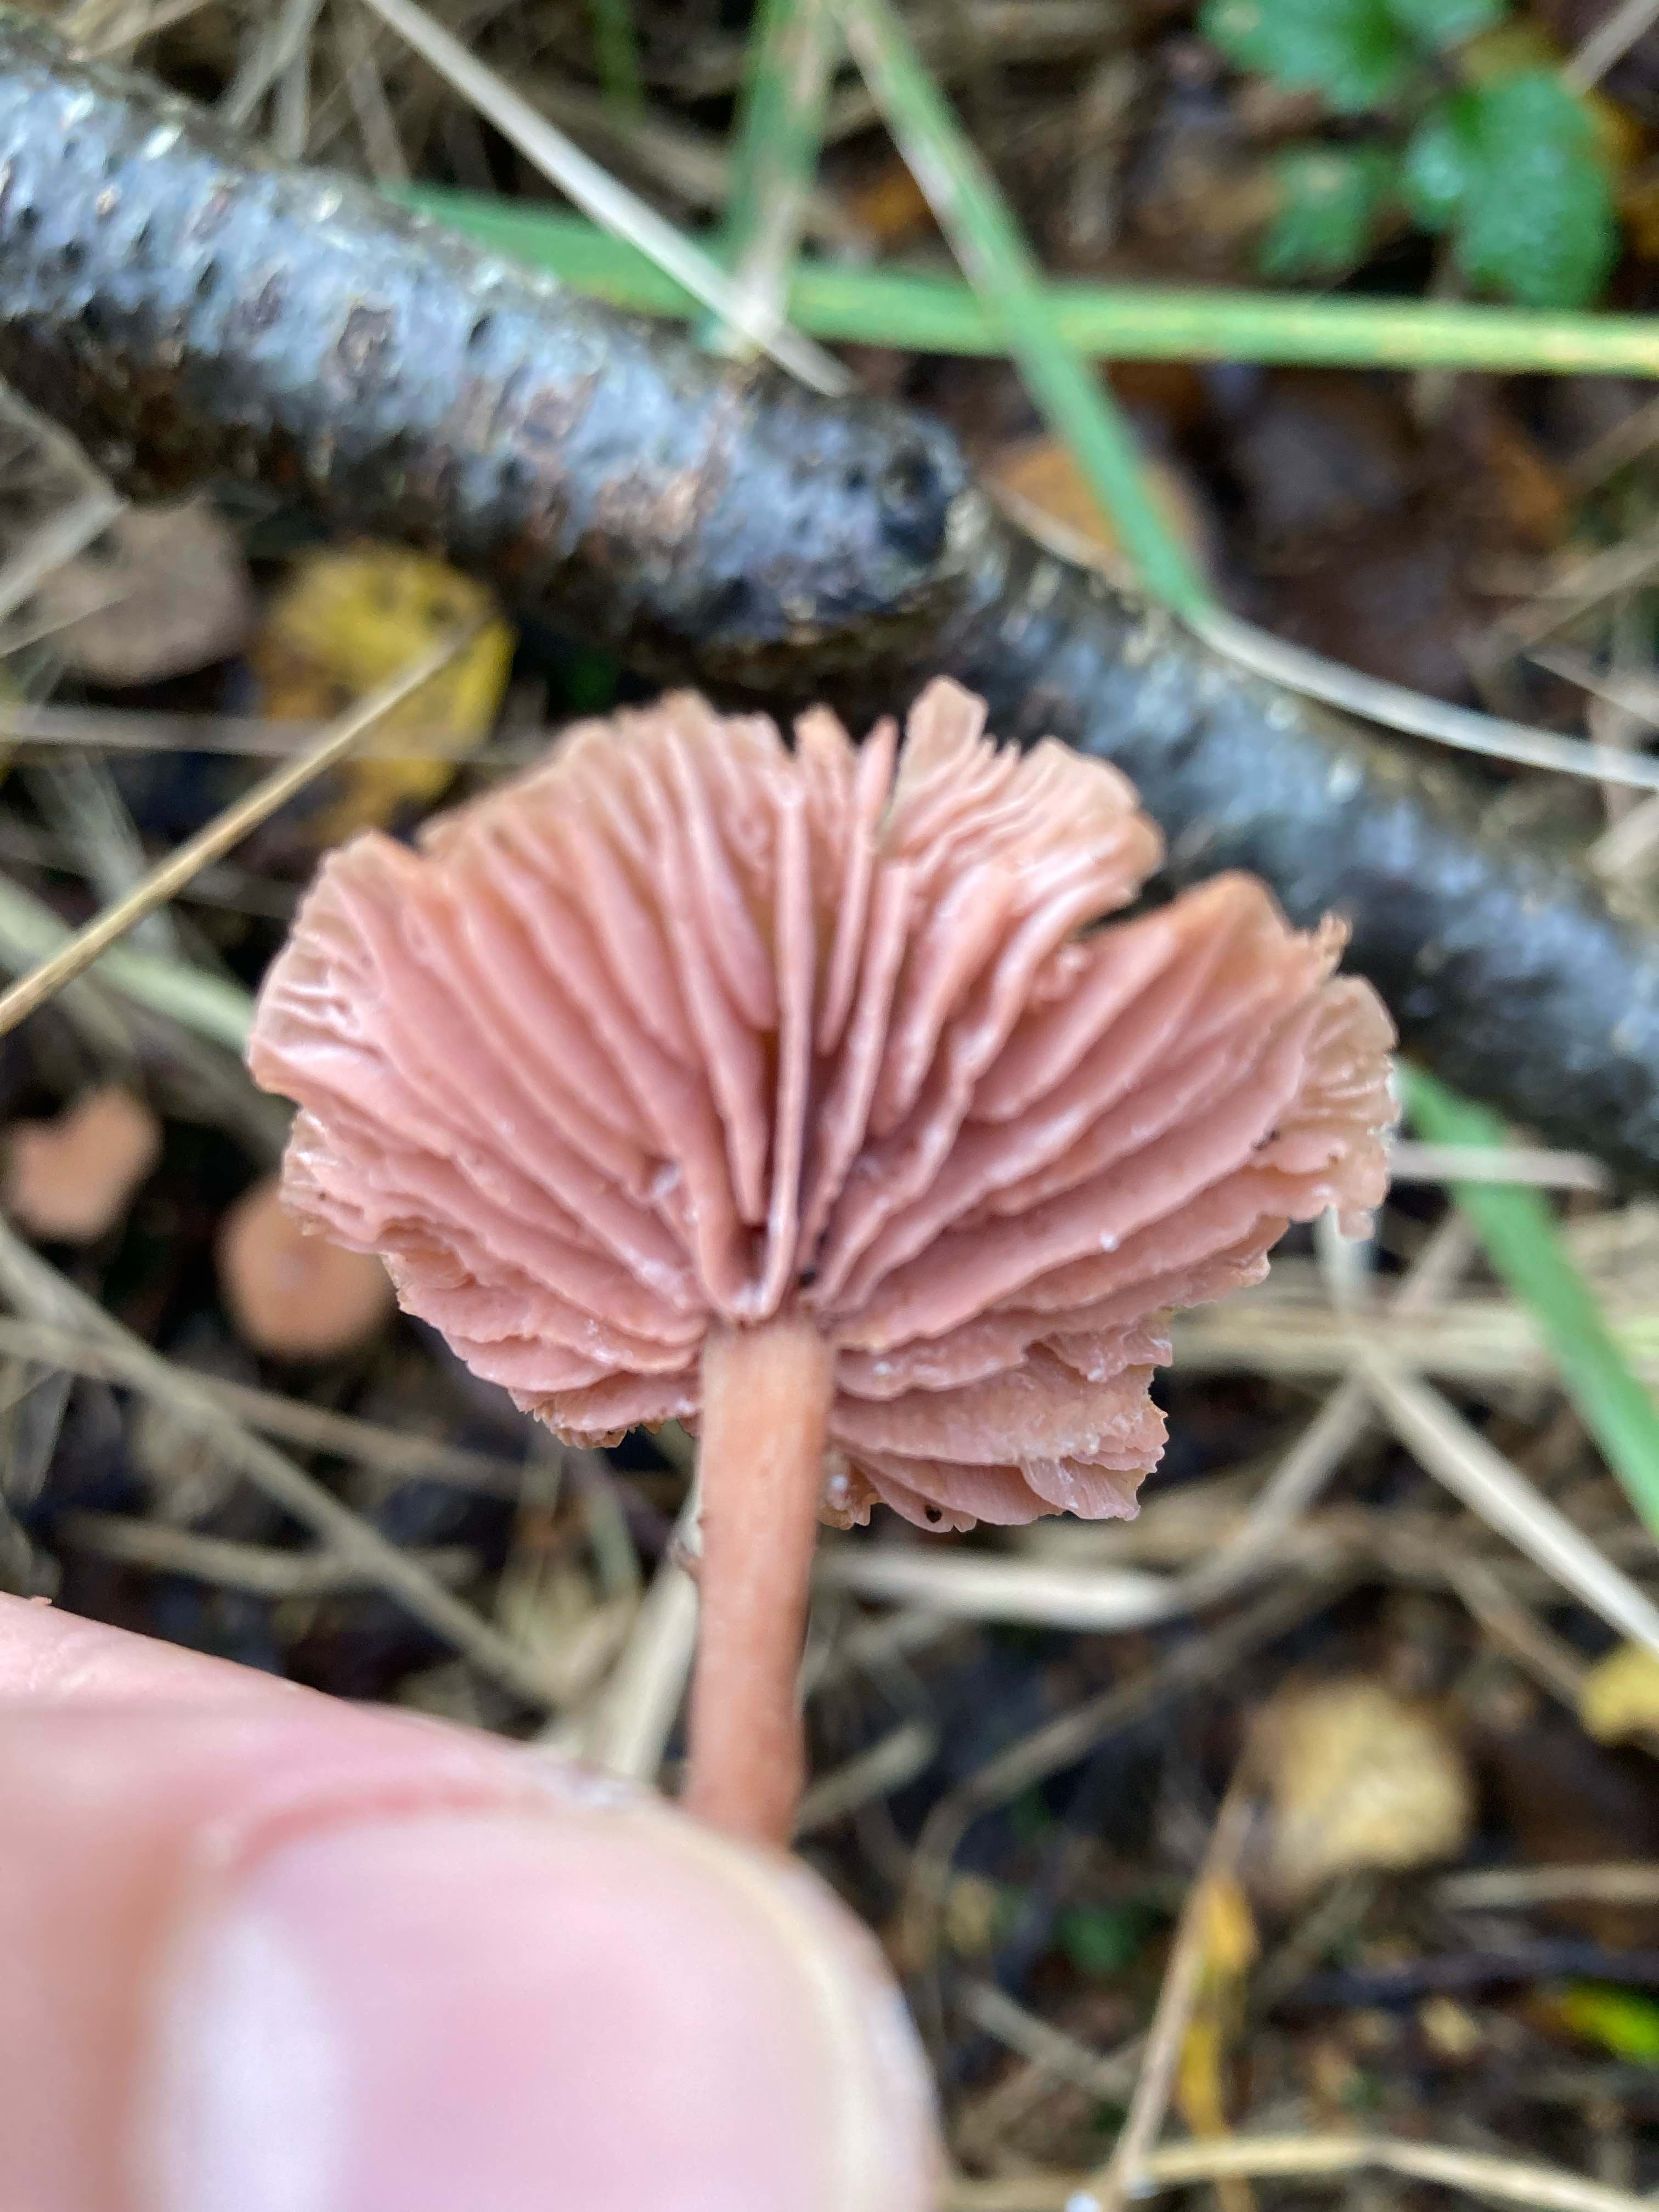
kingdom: Fungi
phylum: Basidiomycota
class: Agaricomycetes
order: Agaricales
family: Hydnangiaceae
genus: Laccaria
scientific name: Laccaria laccata
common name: rød ametysthat
